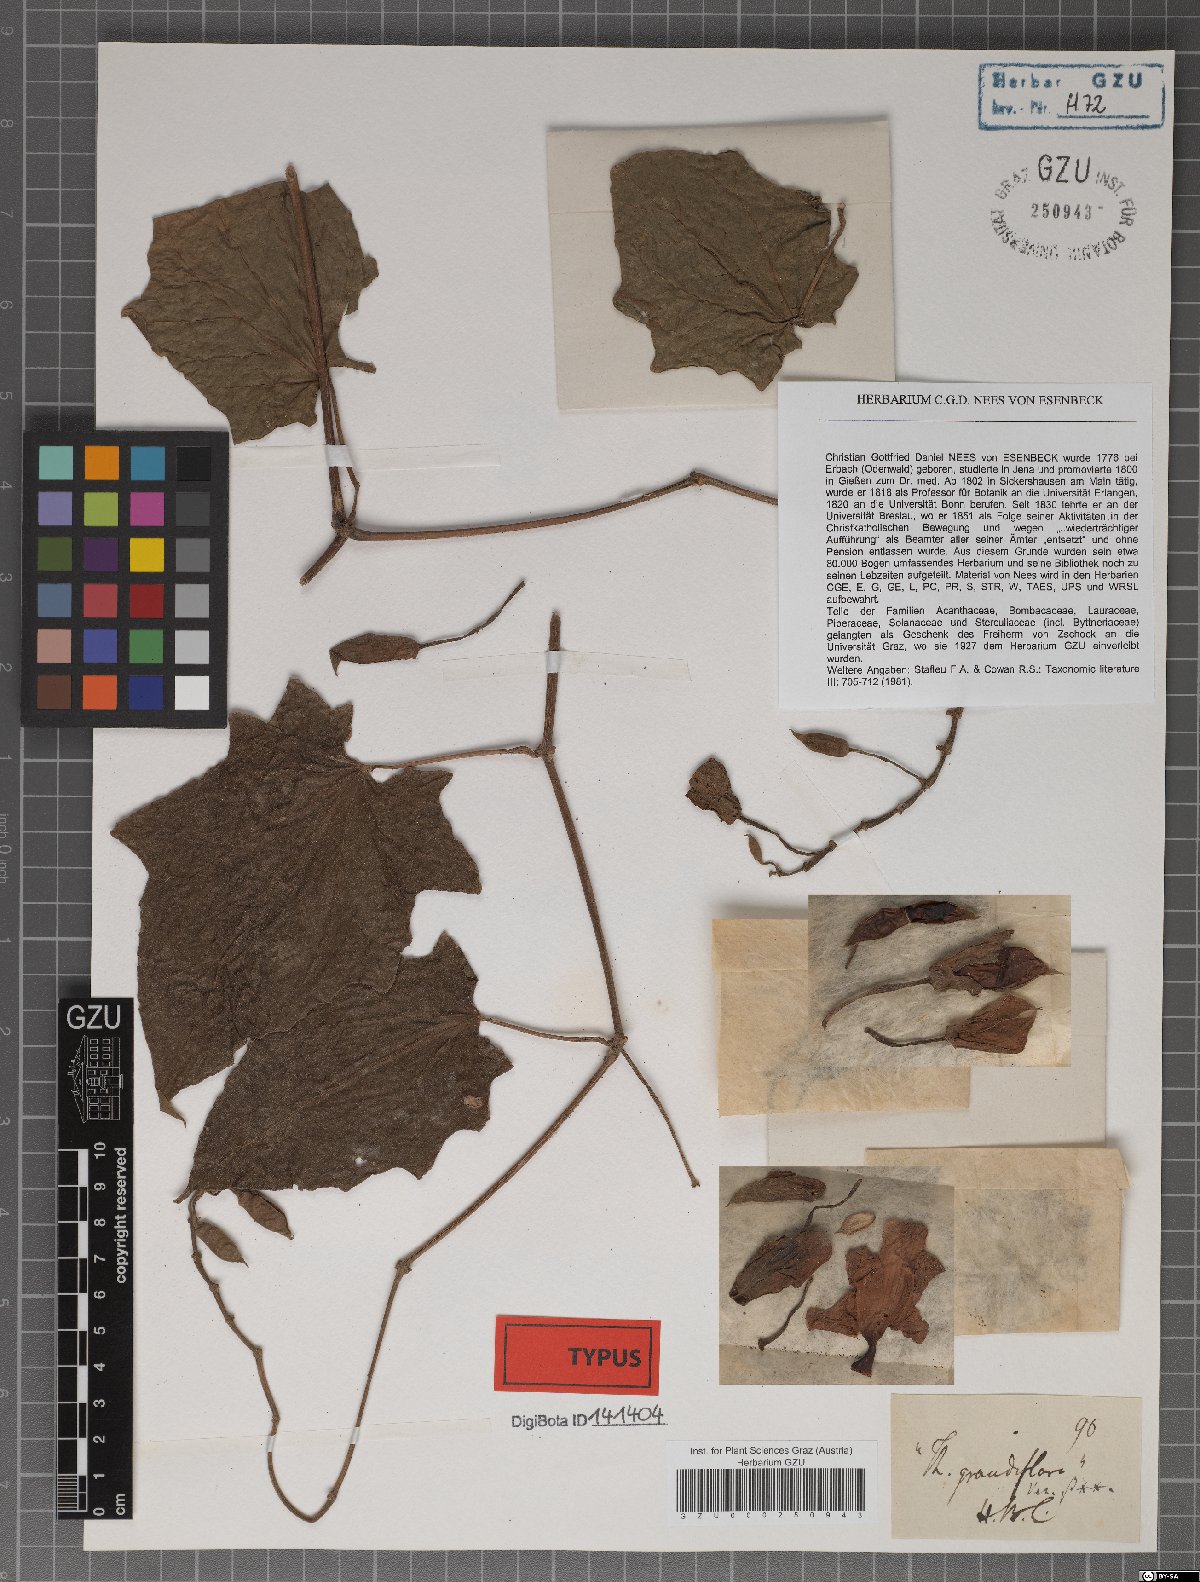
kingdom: Plantae
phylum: Tracheophyta
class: Magnoliopsida
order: Lamiales
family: Acanthaceae
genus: Thunbergia
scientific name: Thunbergia grandiflora
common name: Bengal trumpet
